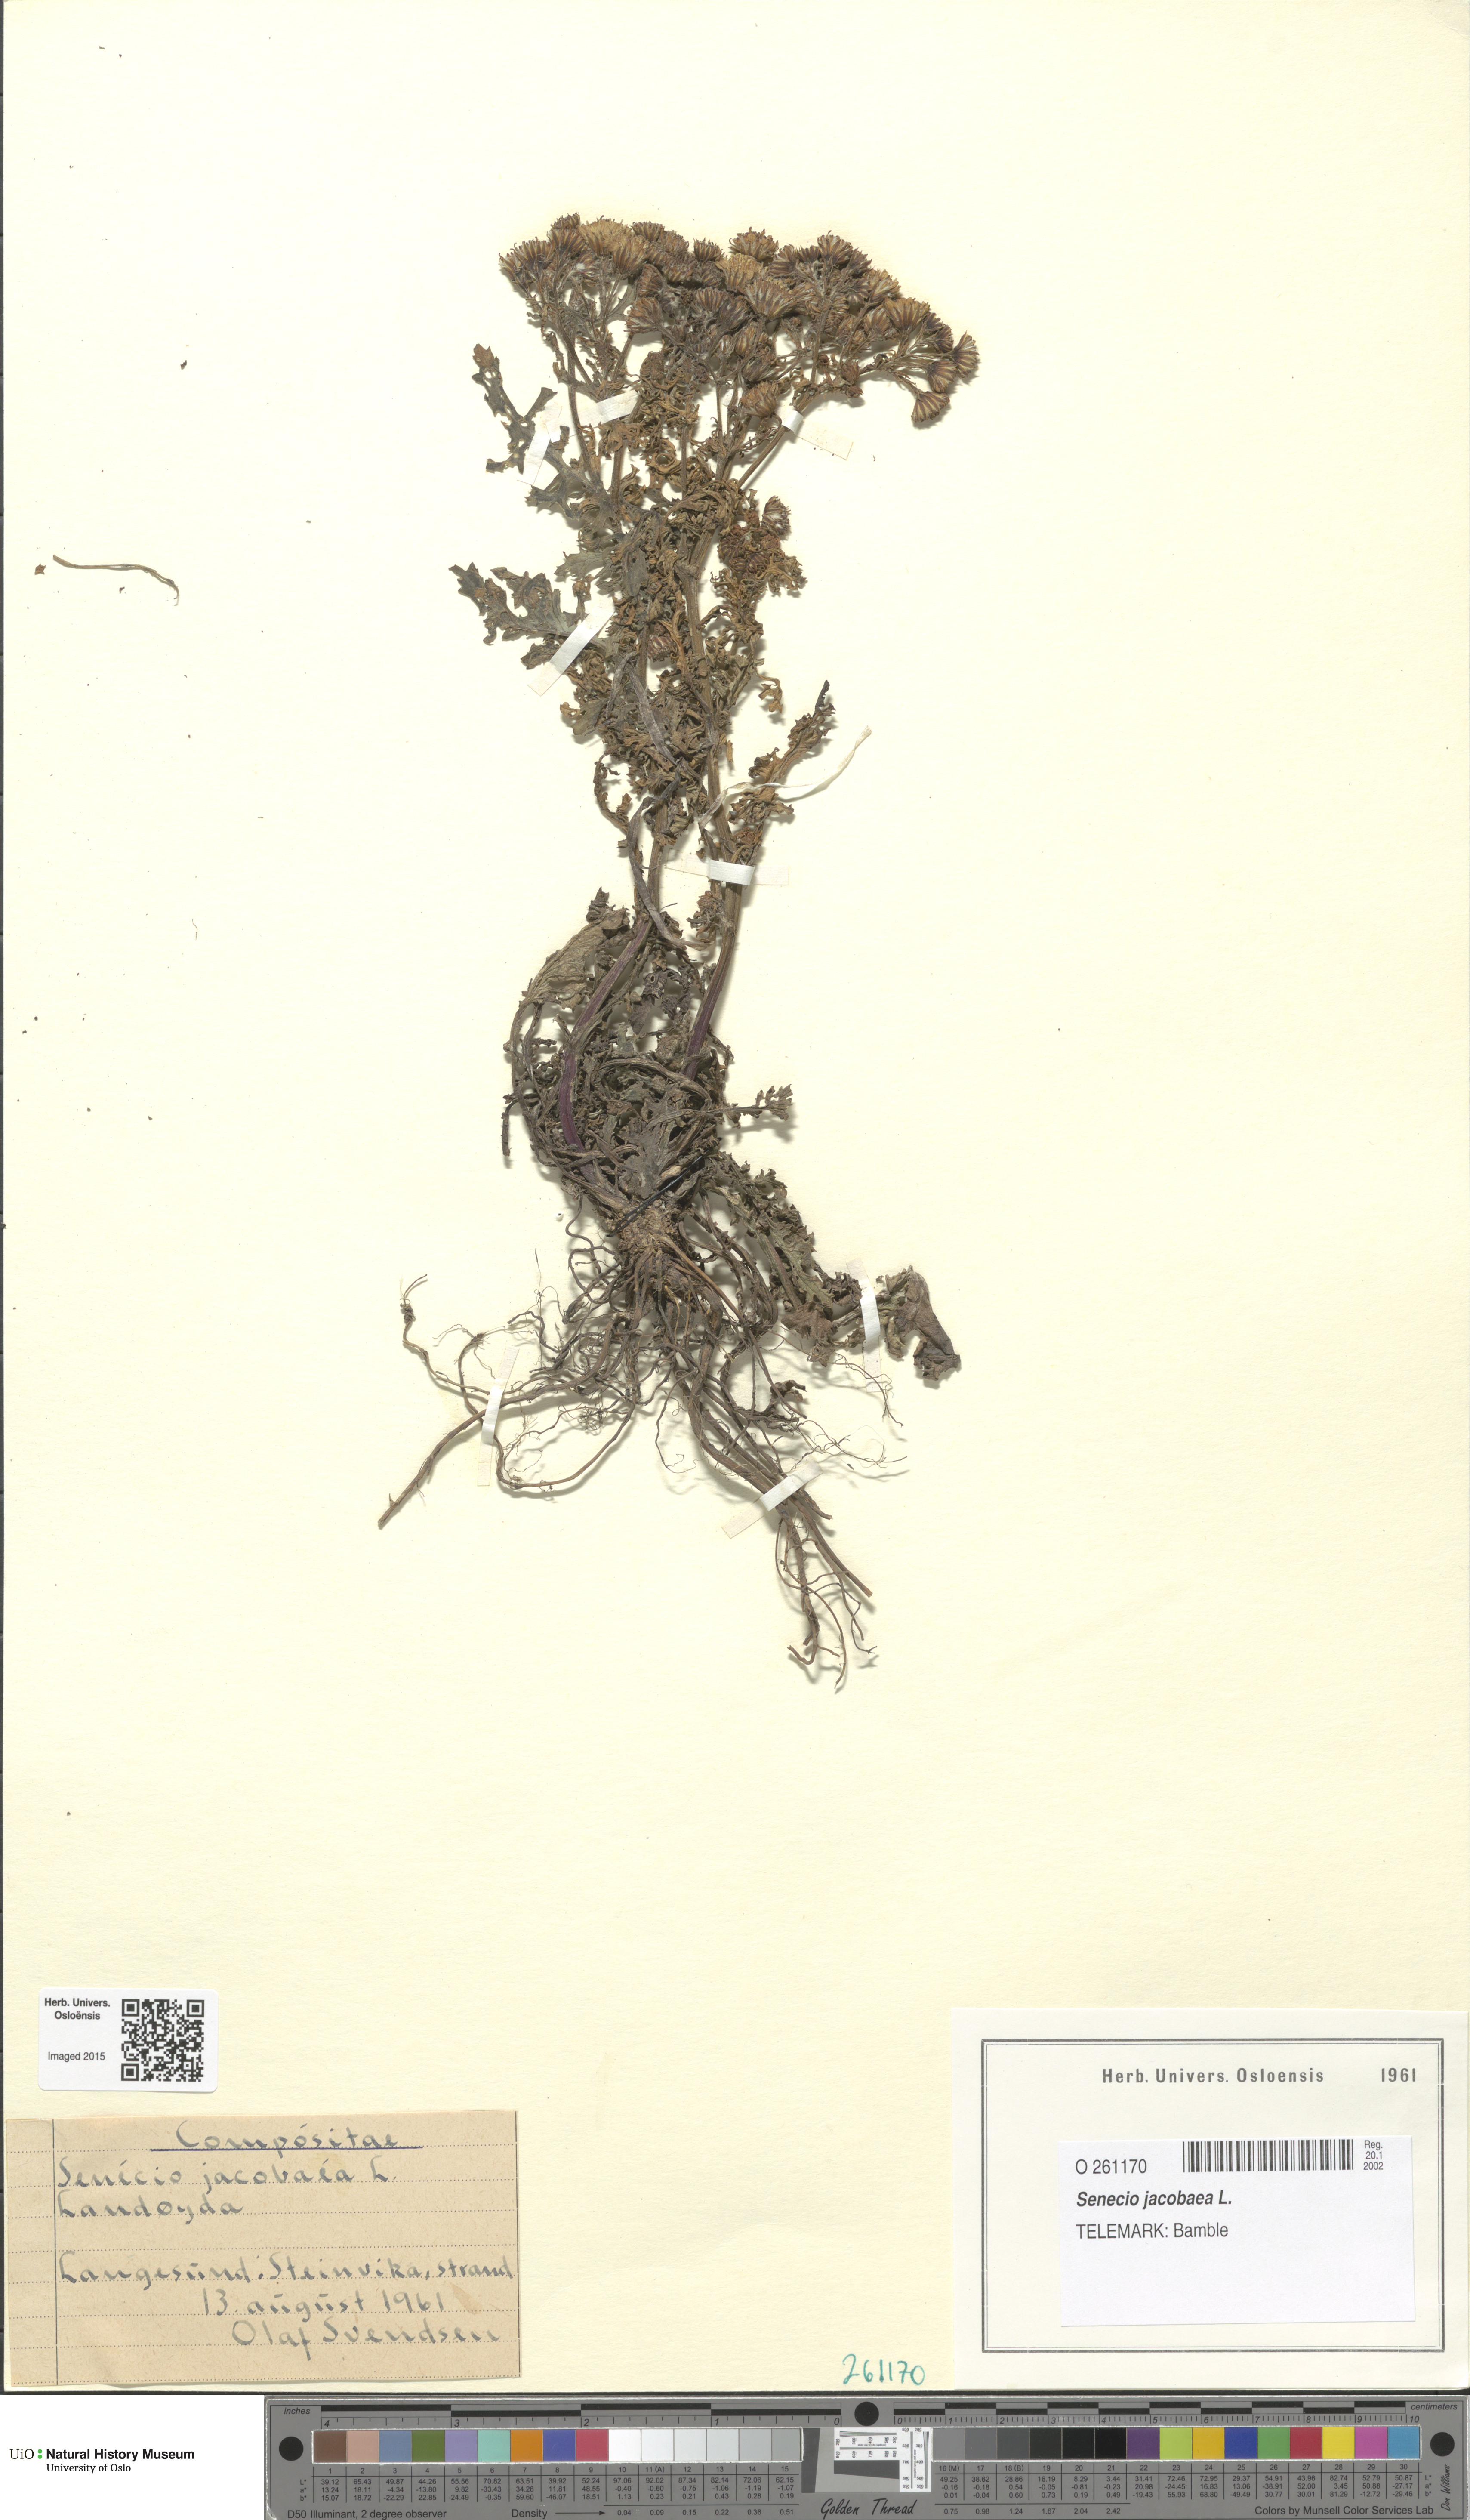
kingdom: Plantae
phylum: Tracheophyta
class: Magnoliopsida
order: Asterales
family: Asteraceae
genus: Jacobaea
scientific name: Jacobaea vulgaris
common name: Stinking willie
